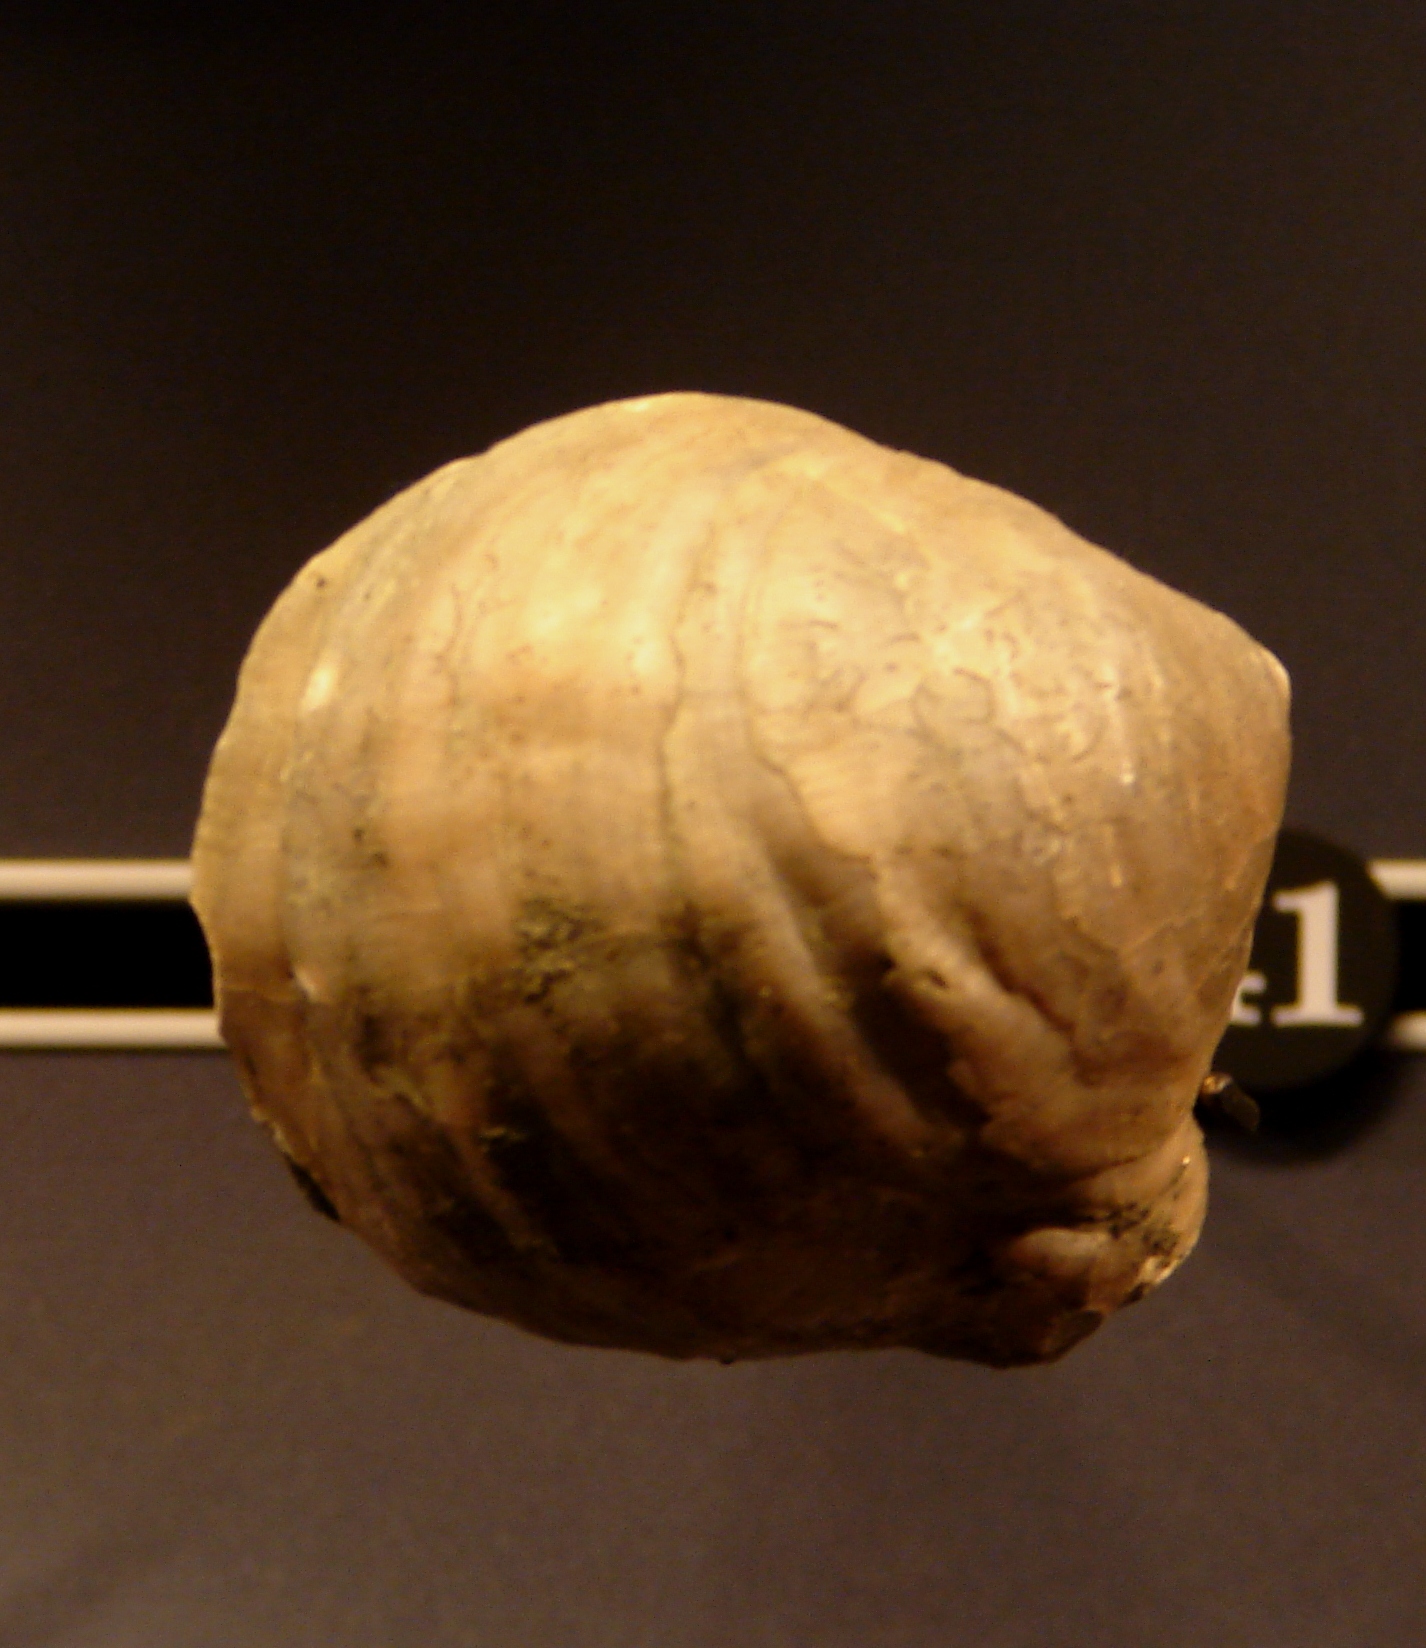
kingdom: Animalia
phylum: Mollusca
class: Bivalvia
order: Ostreida
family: Gryphaeidae
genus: Gryphaea
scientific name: Gryphaea
